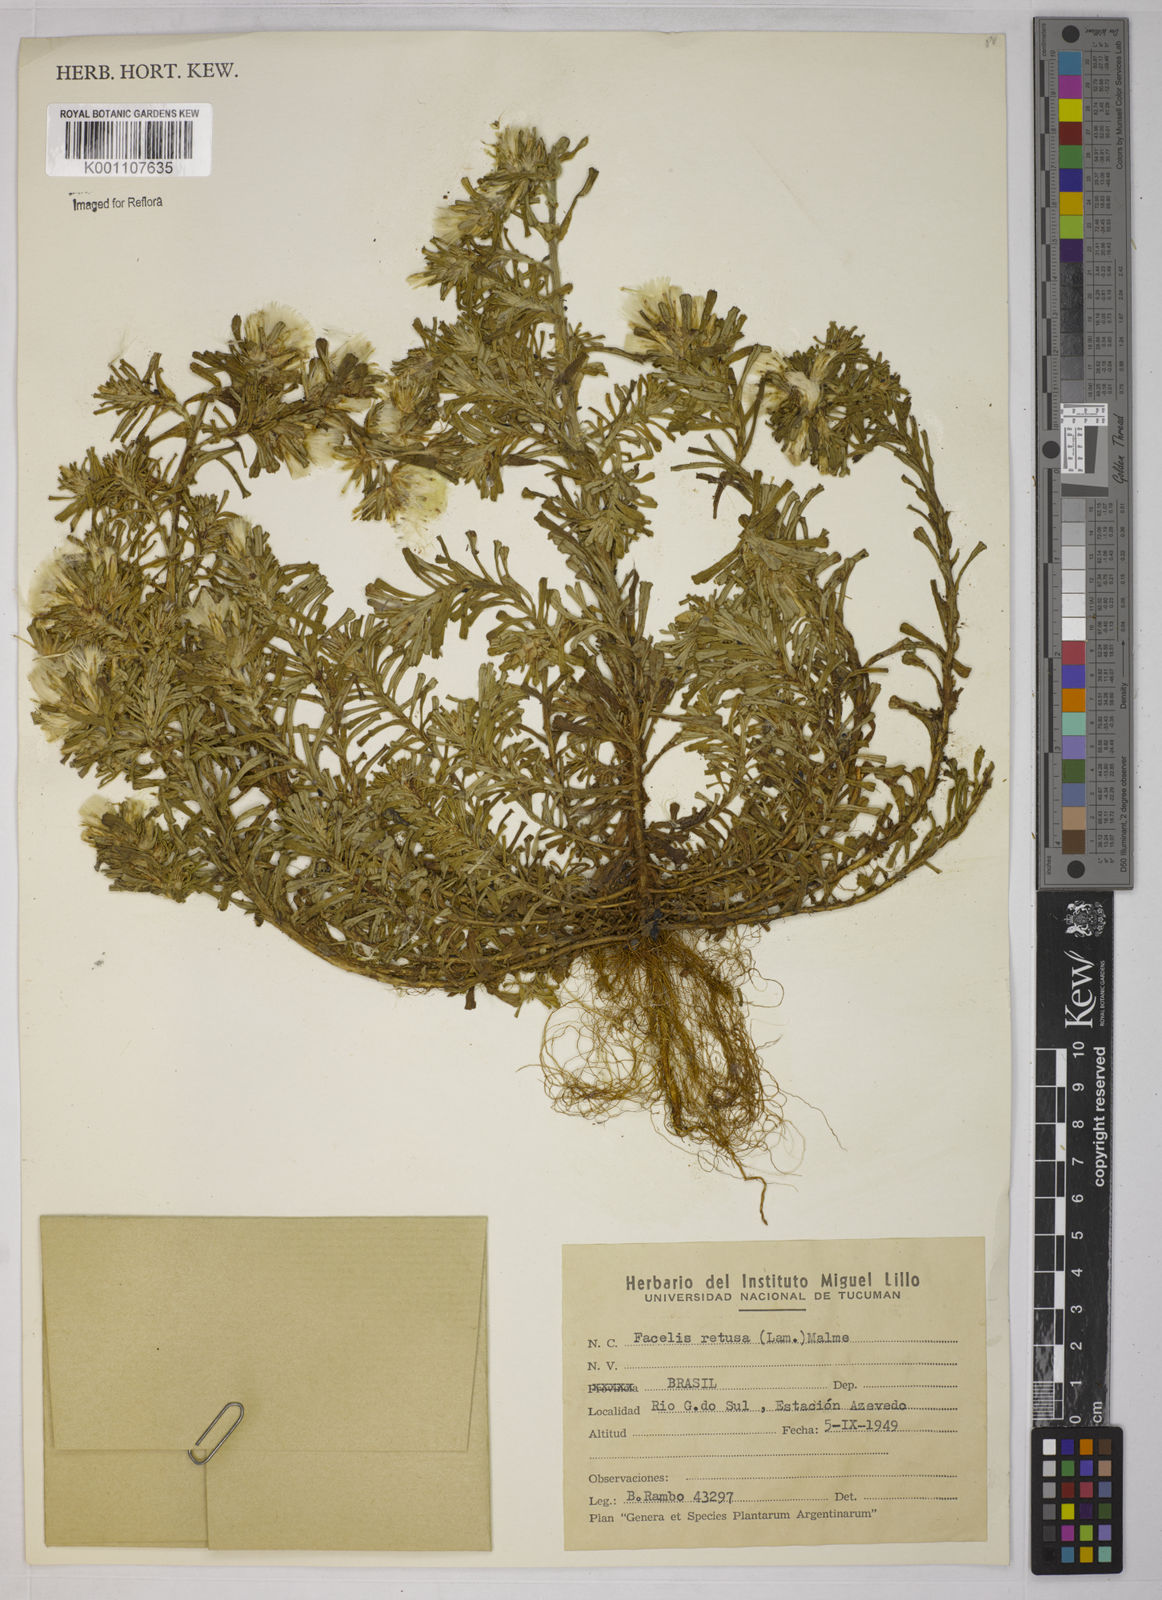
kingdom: Plantae
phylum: Tracheophyta
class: Magnoliopsida
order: Asterales
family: Asteraceae
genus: Facelis
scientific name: Facelis retusa
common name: Annual trampweed
